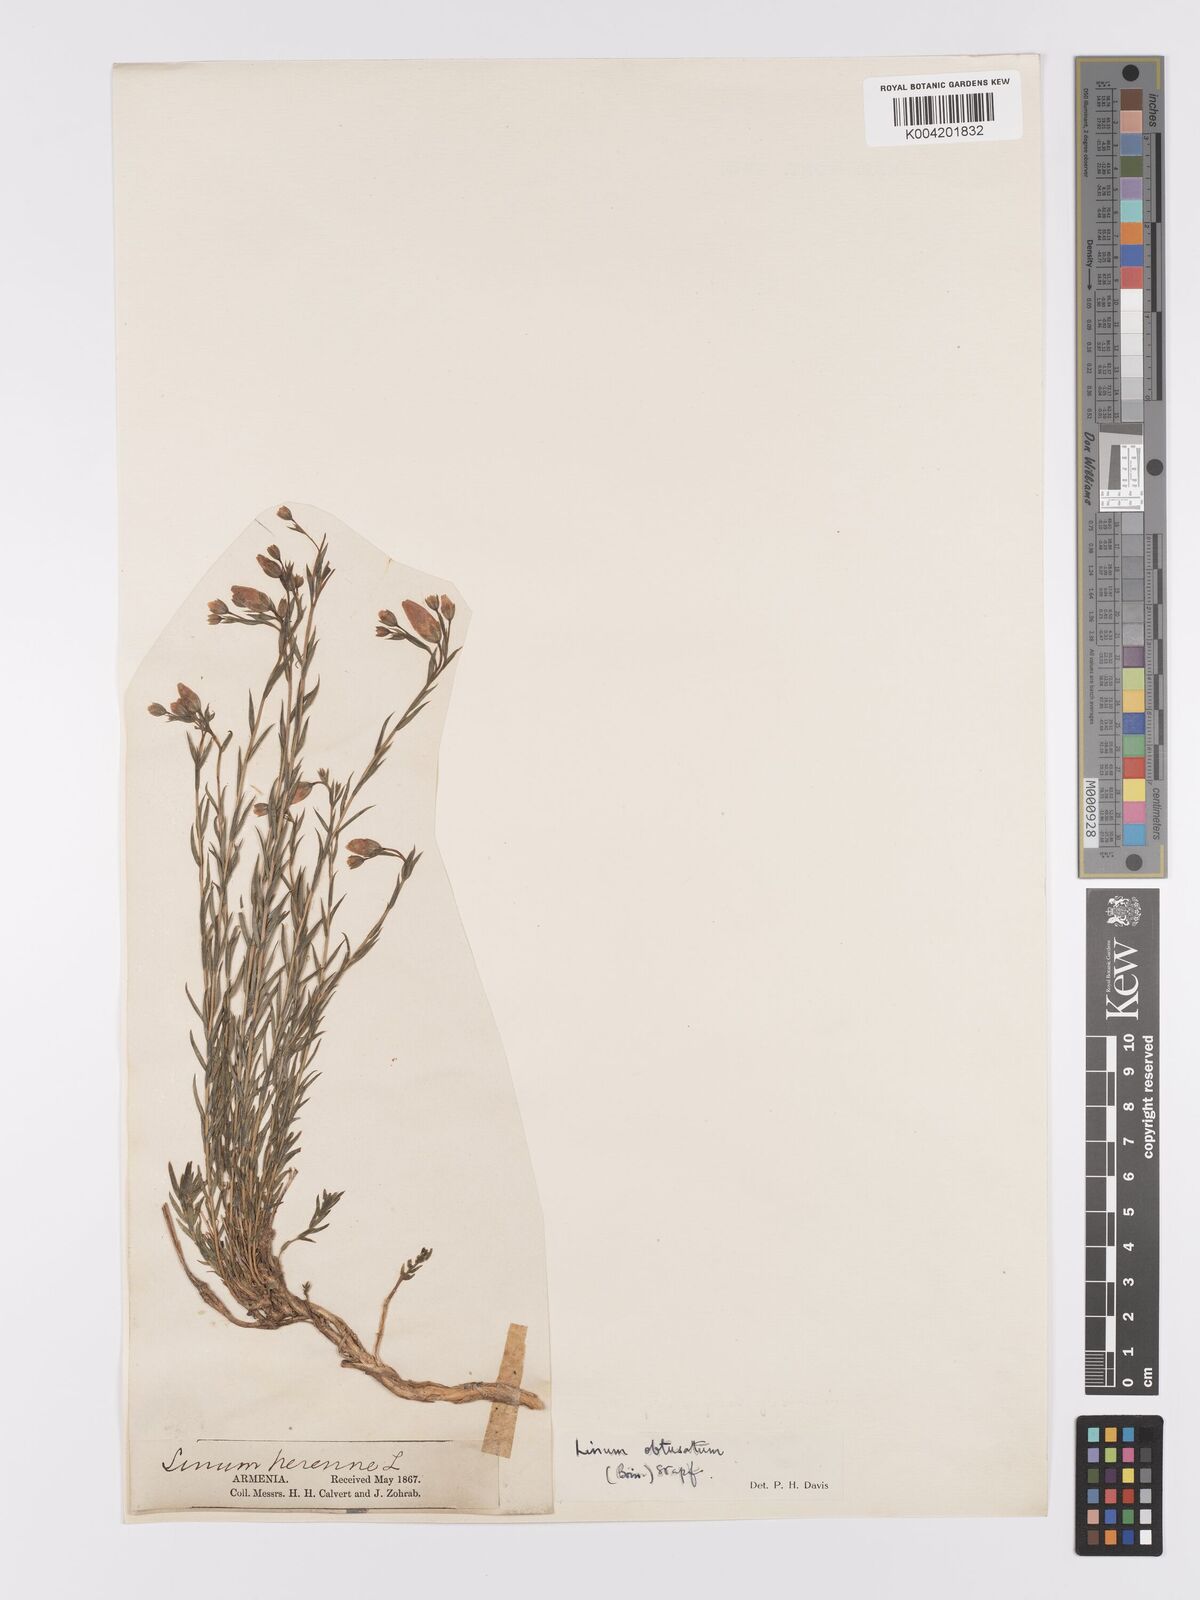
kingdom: Plantae
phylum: Tracheophyta
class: Magnoliopsida
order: Malpighiales
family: Linaceae
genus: Linum
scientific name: Linum obtusatum
